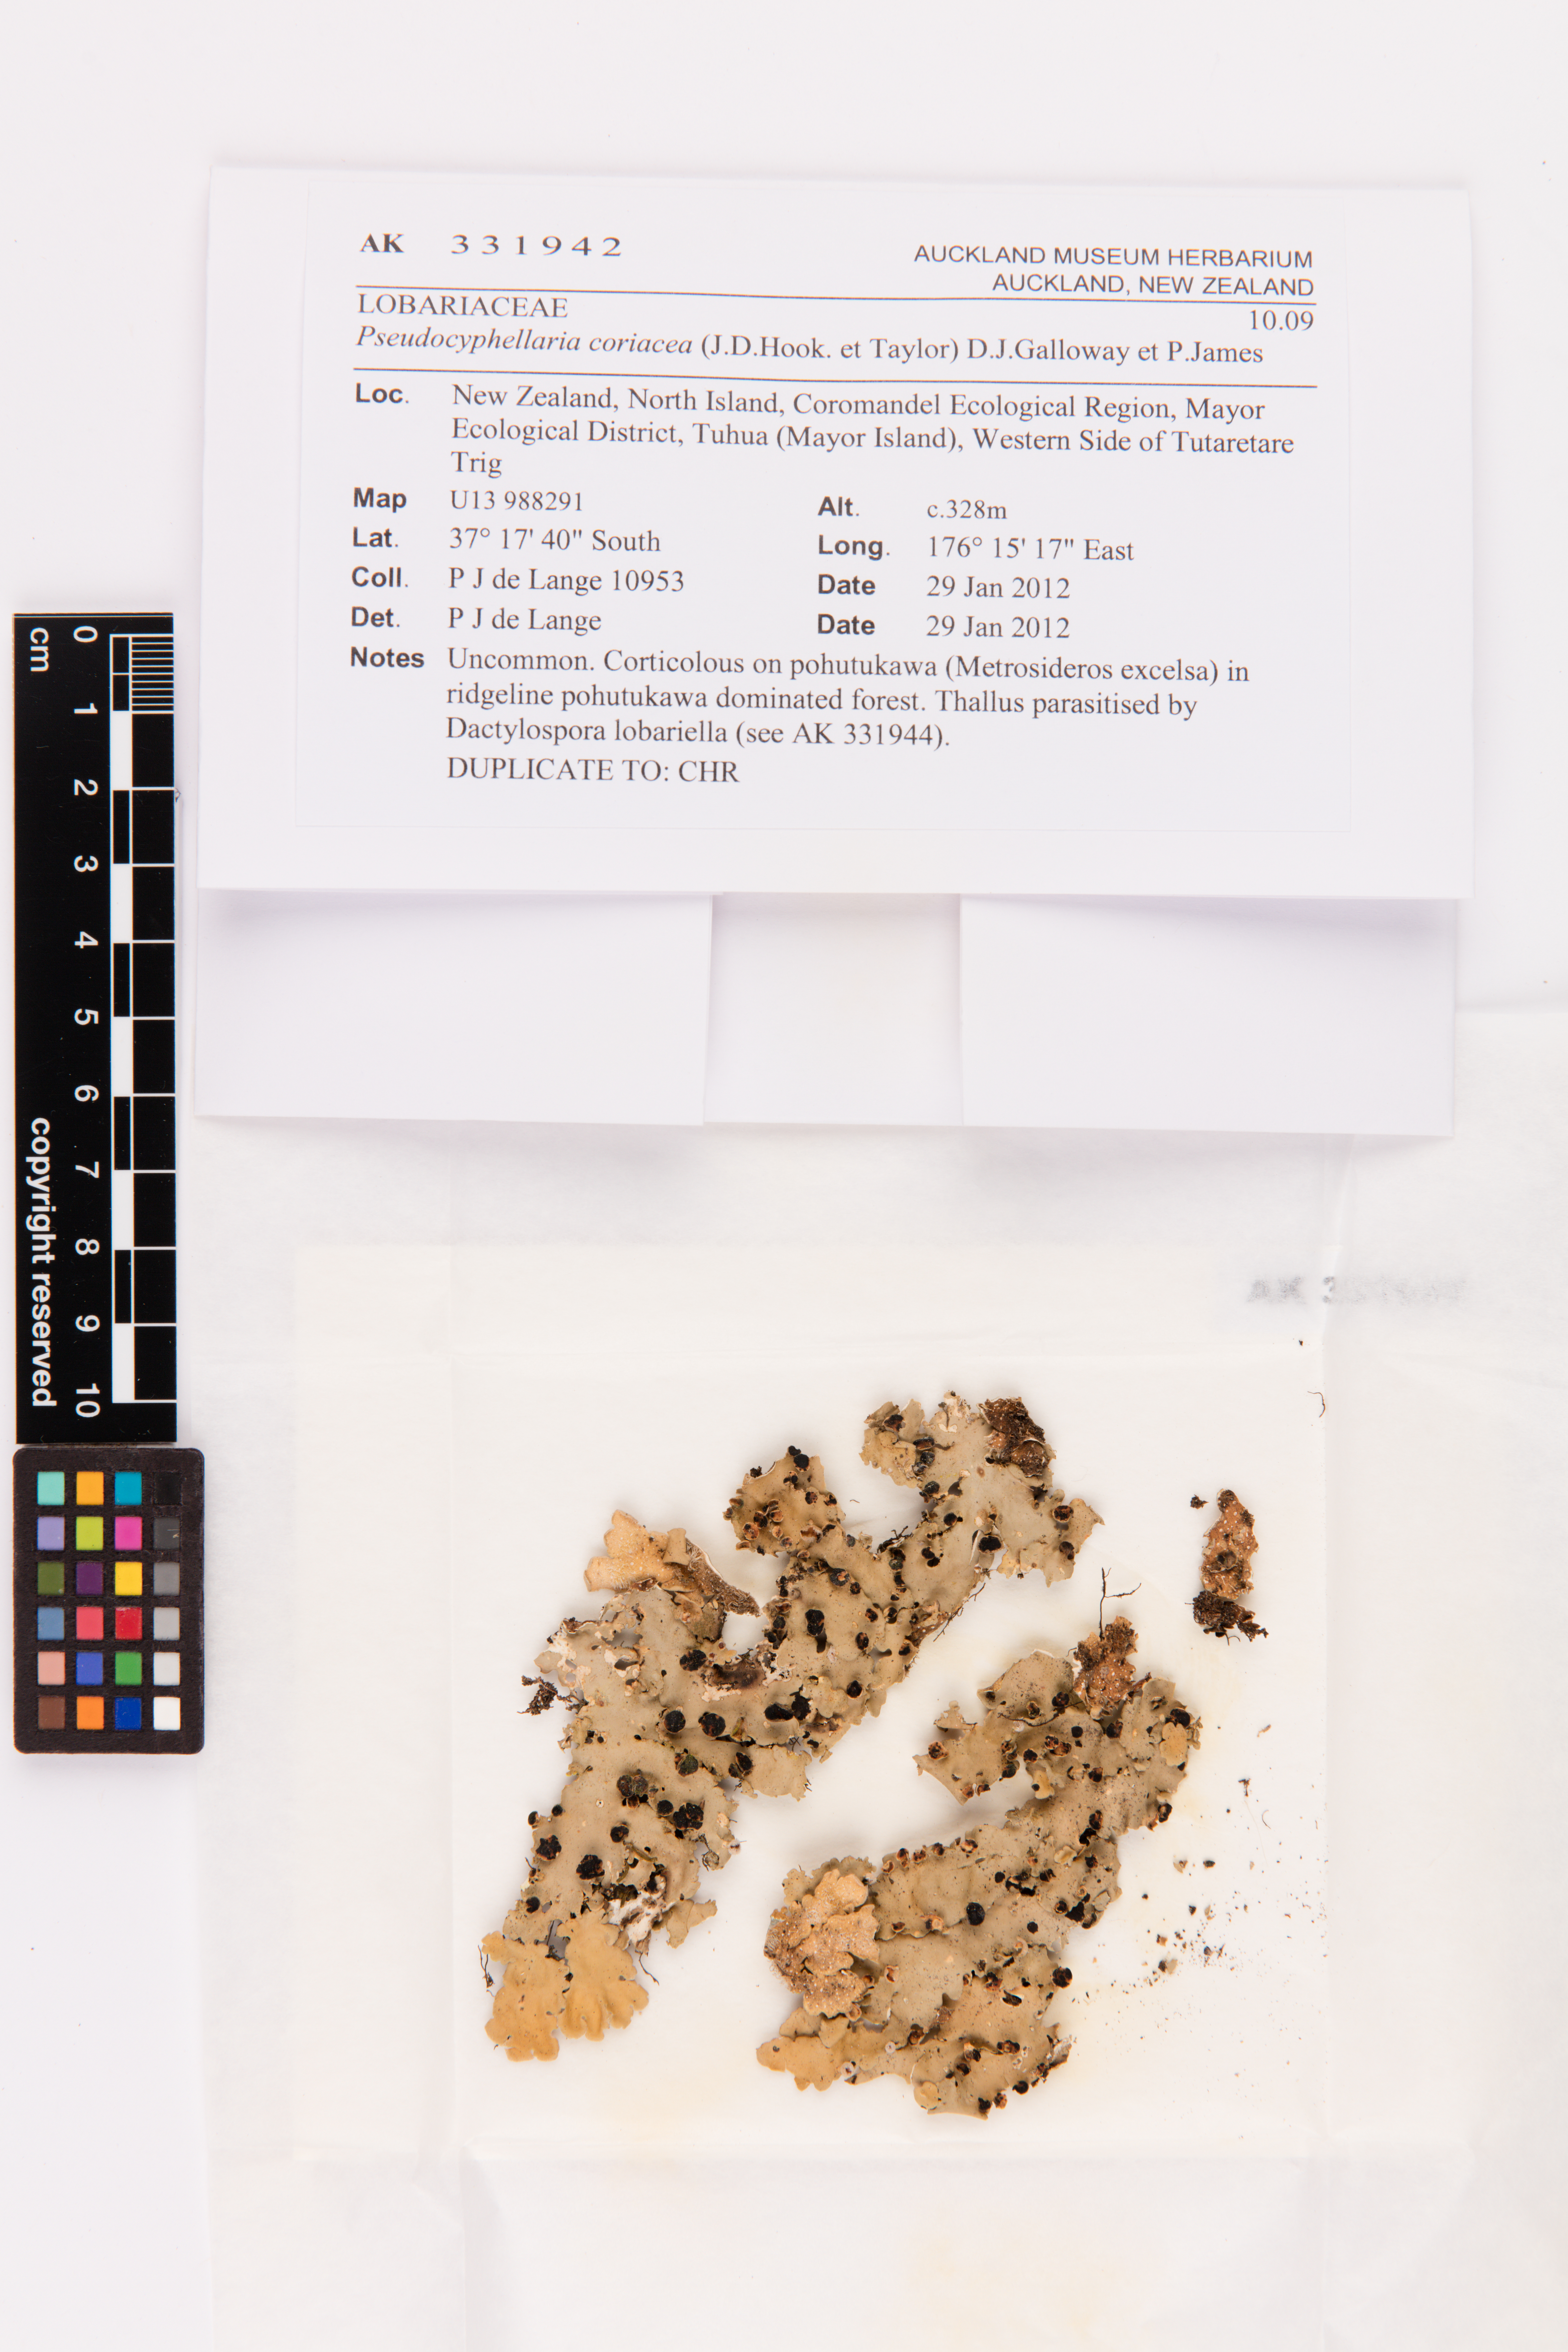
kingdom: Fungi
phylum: Ascomycota
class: Lecanoromycetes
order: Peltigerales
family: Lobariaceae
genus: Pseudocyphellaria
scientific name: Pseudocyphellaria coriacea
